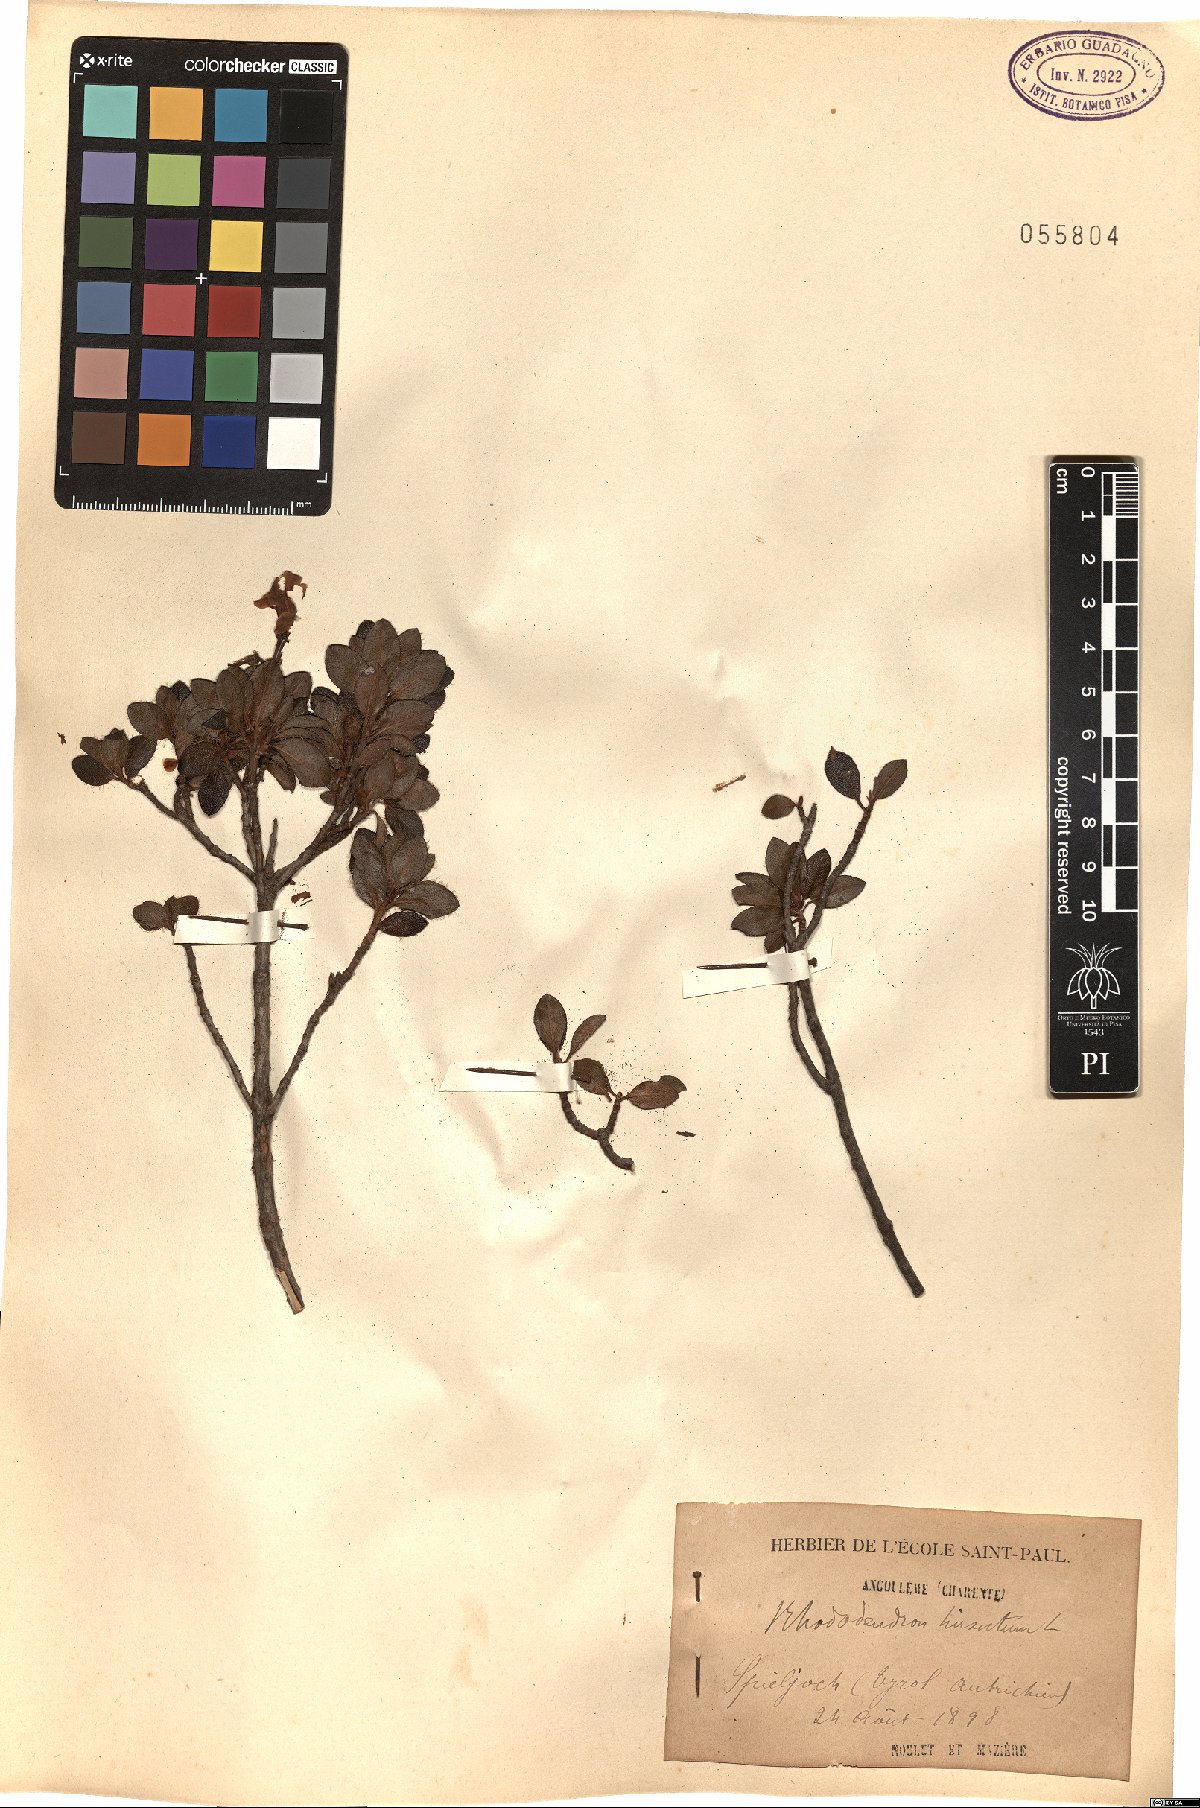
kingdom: Plantae
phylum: Tracheophyta
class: Magnoliopsida
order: Ericales
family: Ericaceae
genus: Rhododendron
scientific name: Rhododendron hirsutum
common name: Hairy alpenrose
